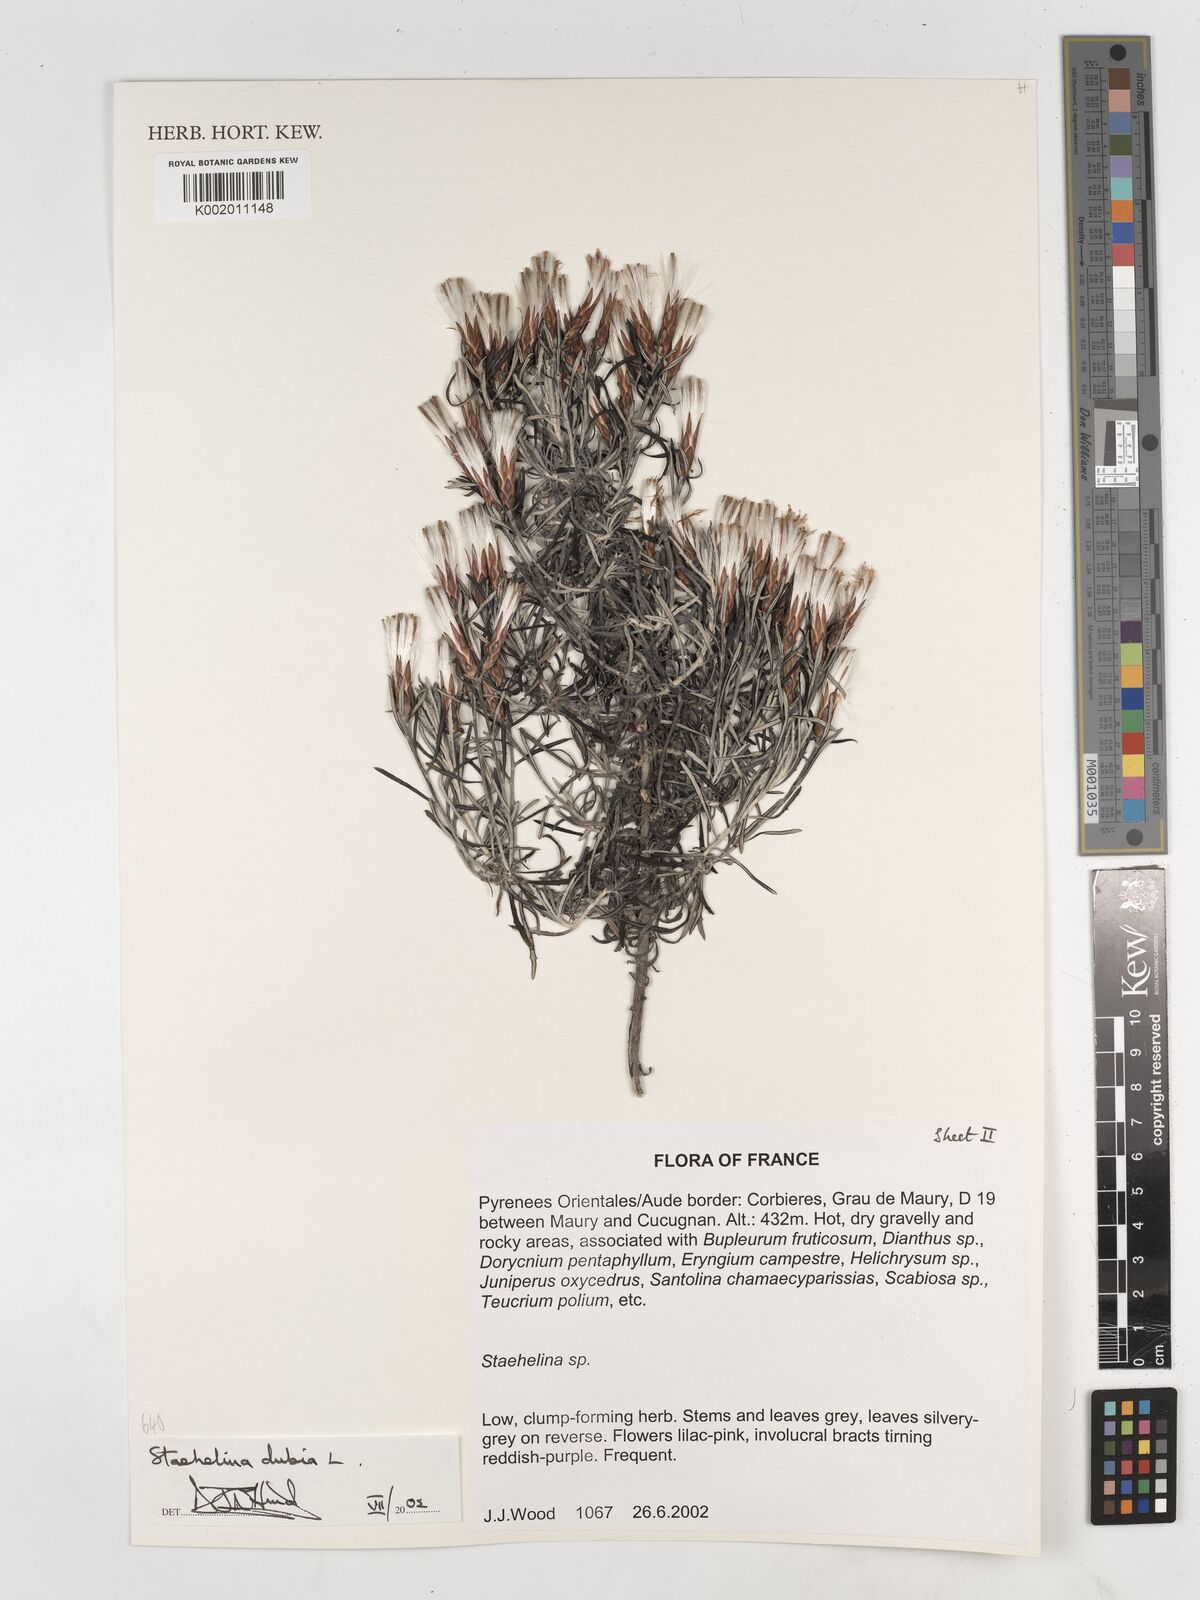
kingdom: Plantae
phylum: Tracheophyta
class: Magnoliopsida
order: Asterales
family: Asteraceae
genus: Staehelina
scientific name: Staehelina dubia
